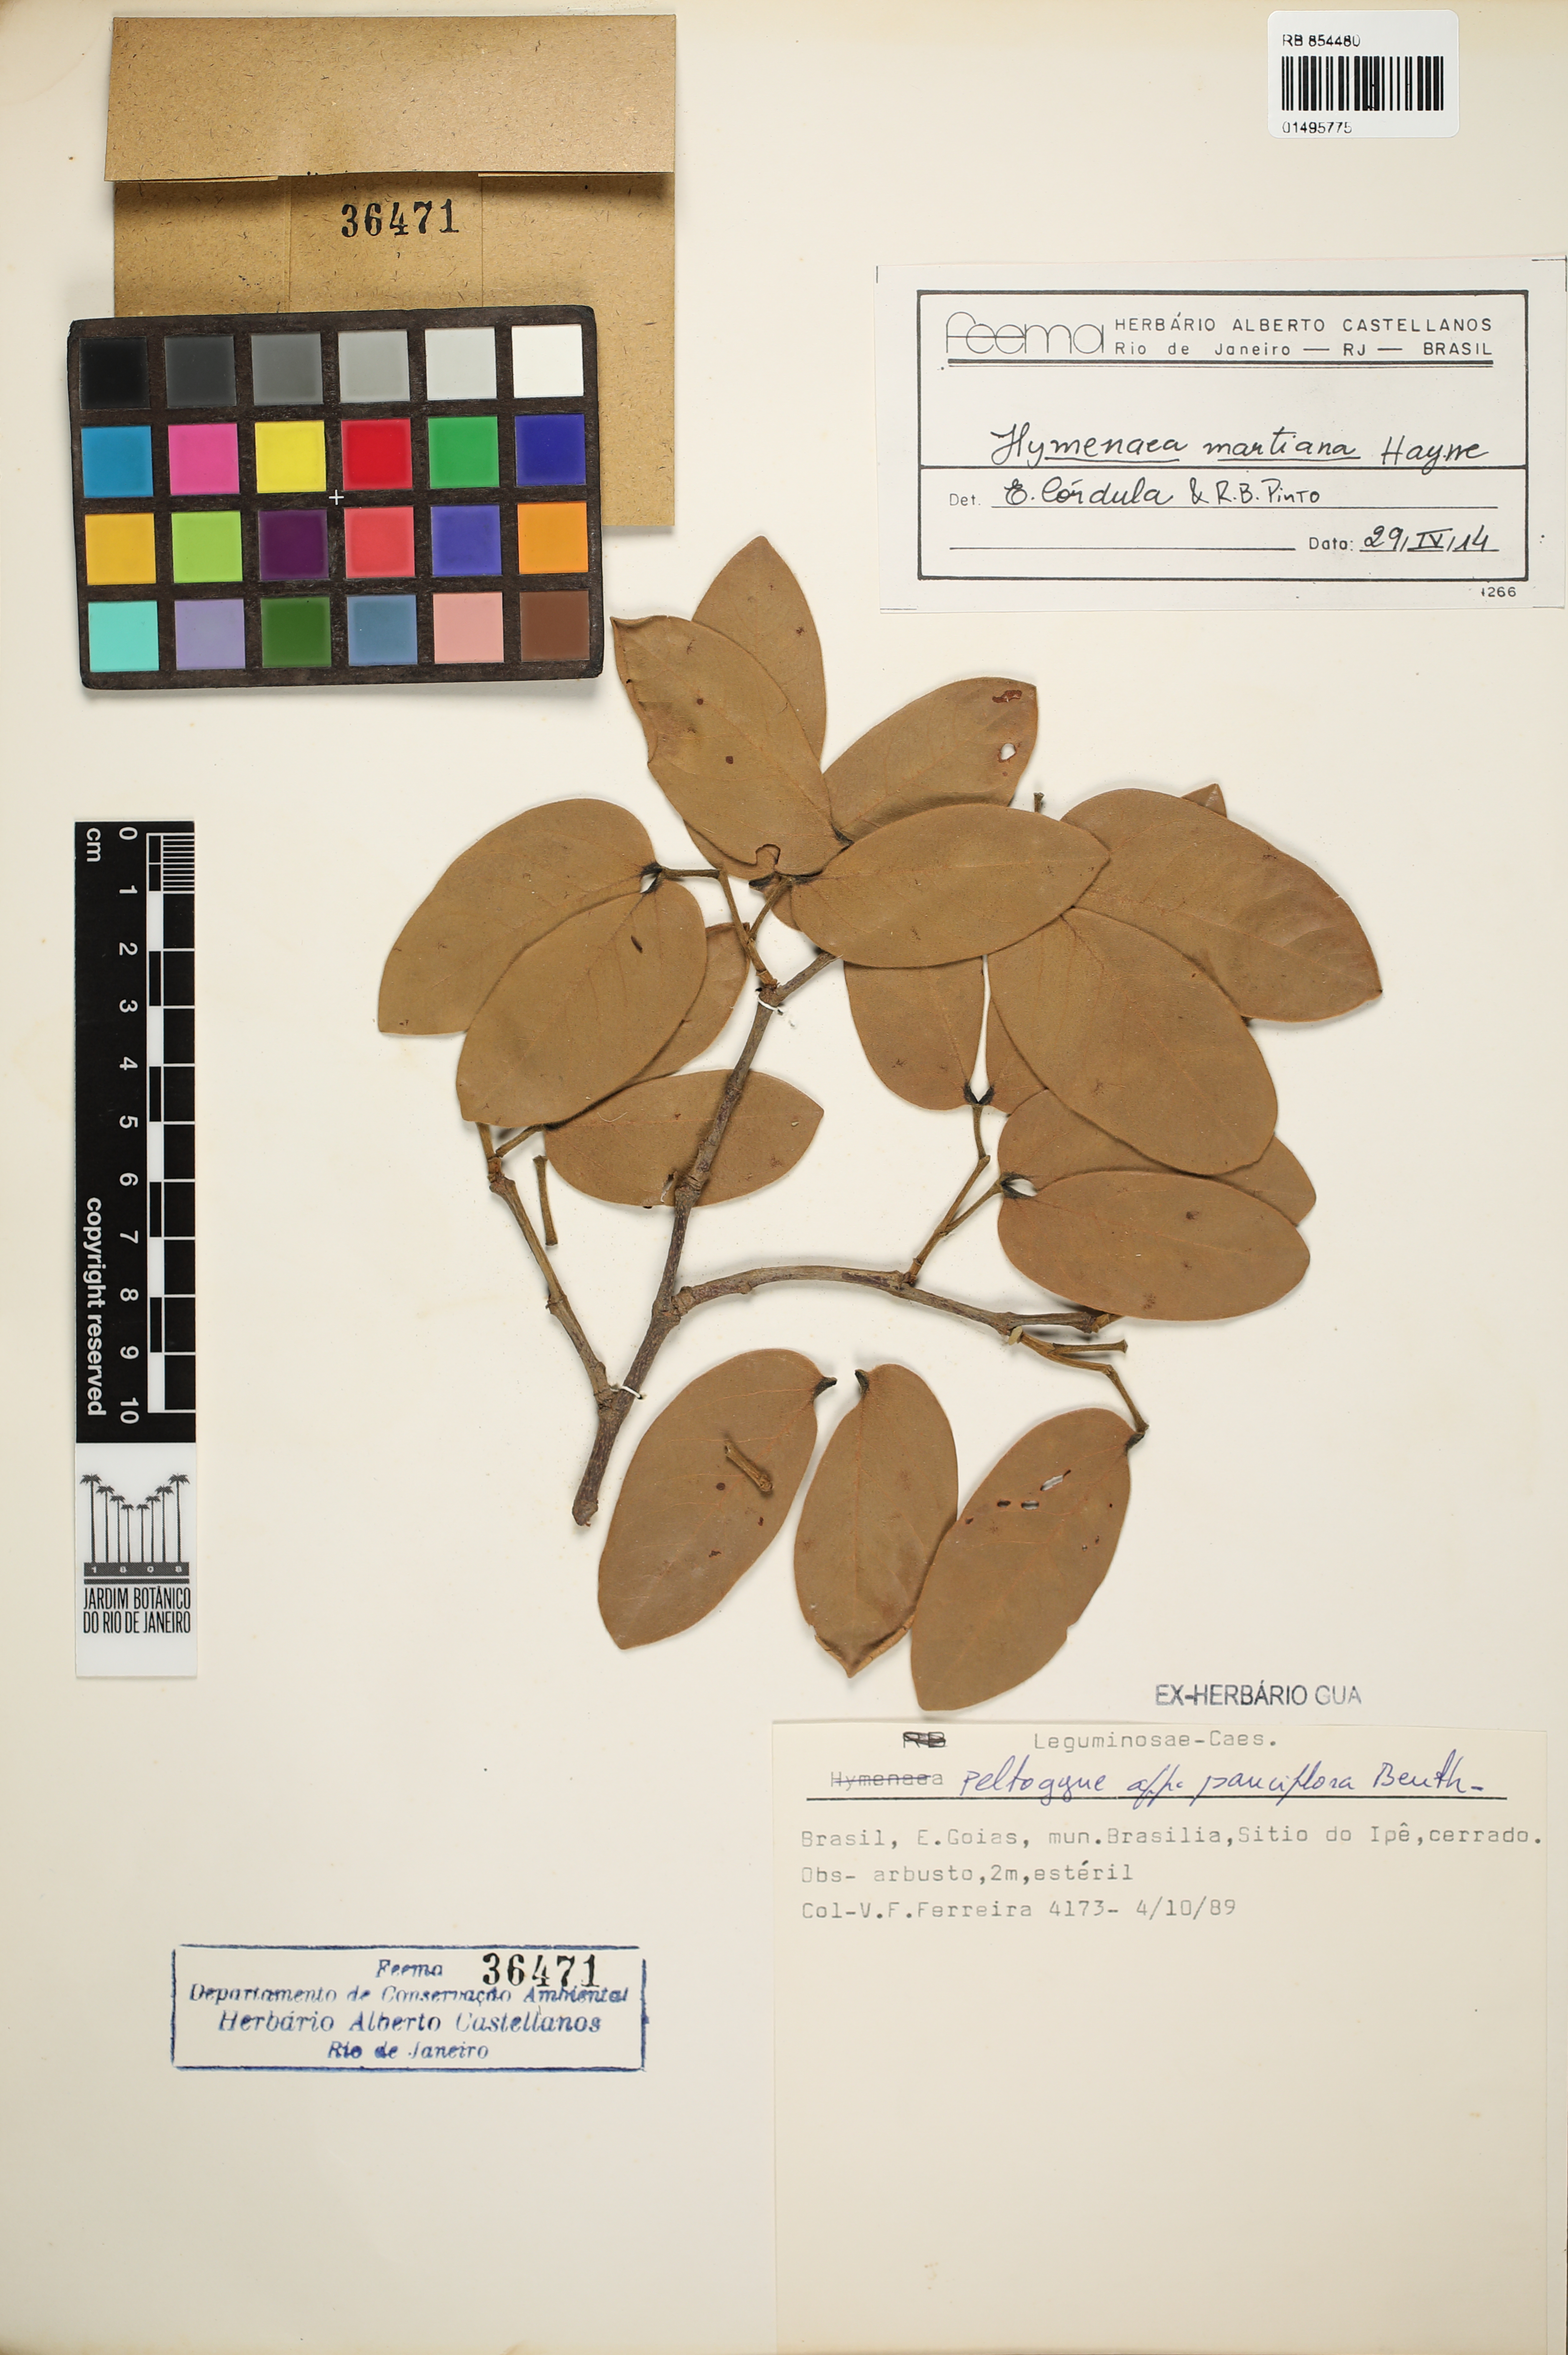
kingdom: Plantae
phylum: Tracheophyta
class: Magnoliopsida
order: Fabales
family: Fabaceae
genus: Hymenaea
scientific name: Hymenaea martiana
